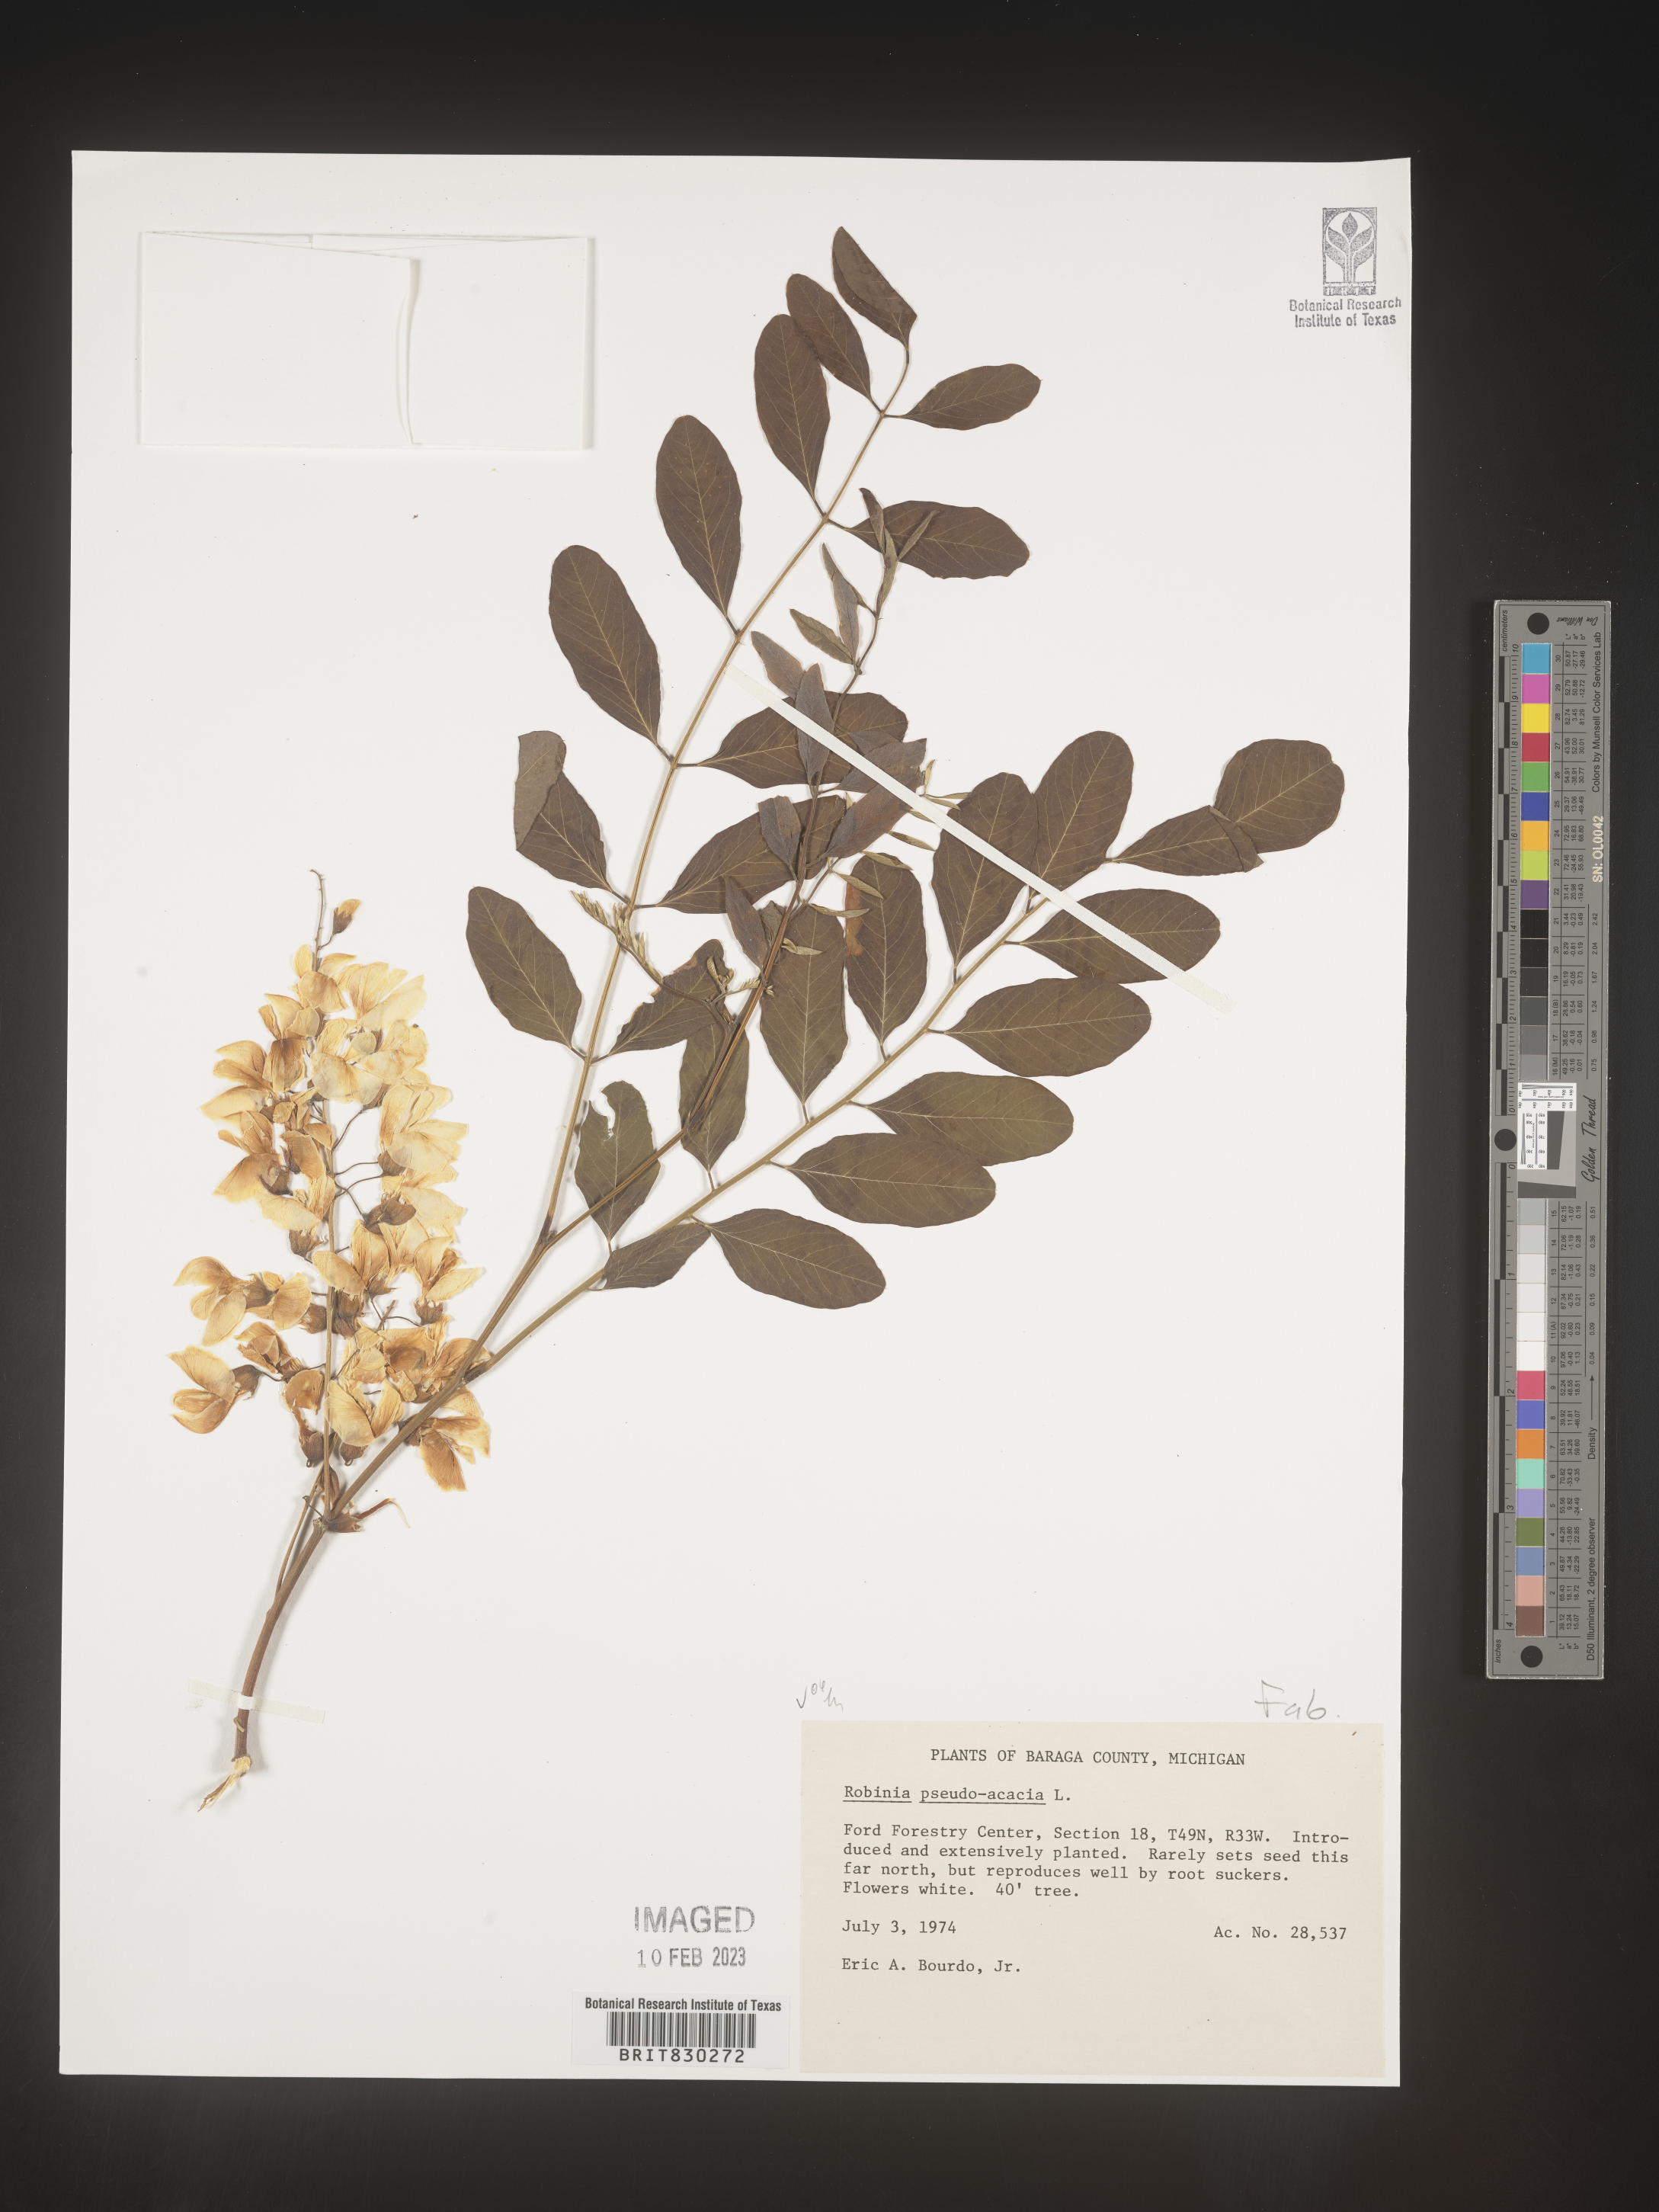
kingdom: Plantae
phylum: Tracheophyta
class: Magnoliopsida
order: Fabales
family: Fabaceae
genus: Robinia
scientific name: Robinia pseudoacacia
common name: Black locust
